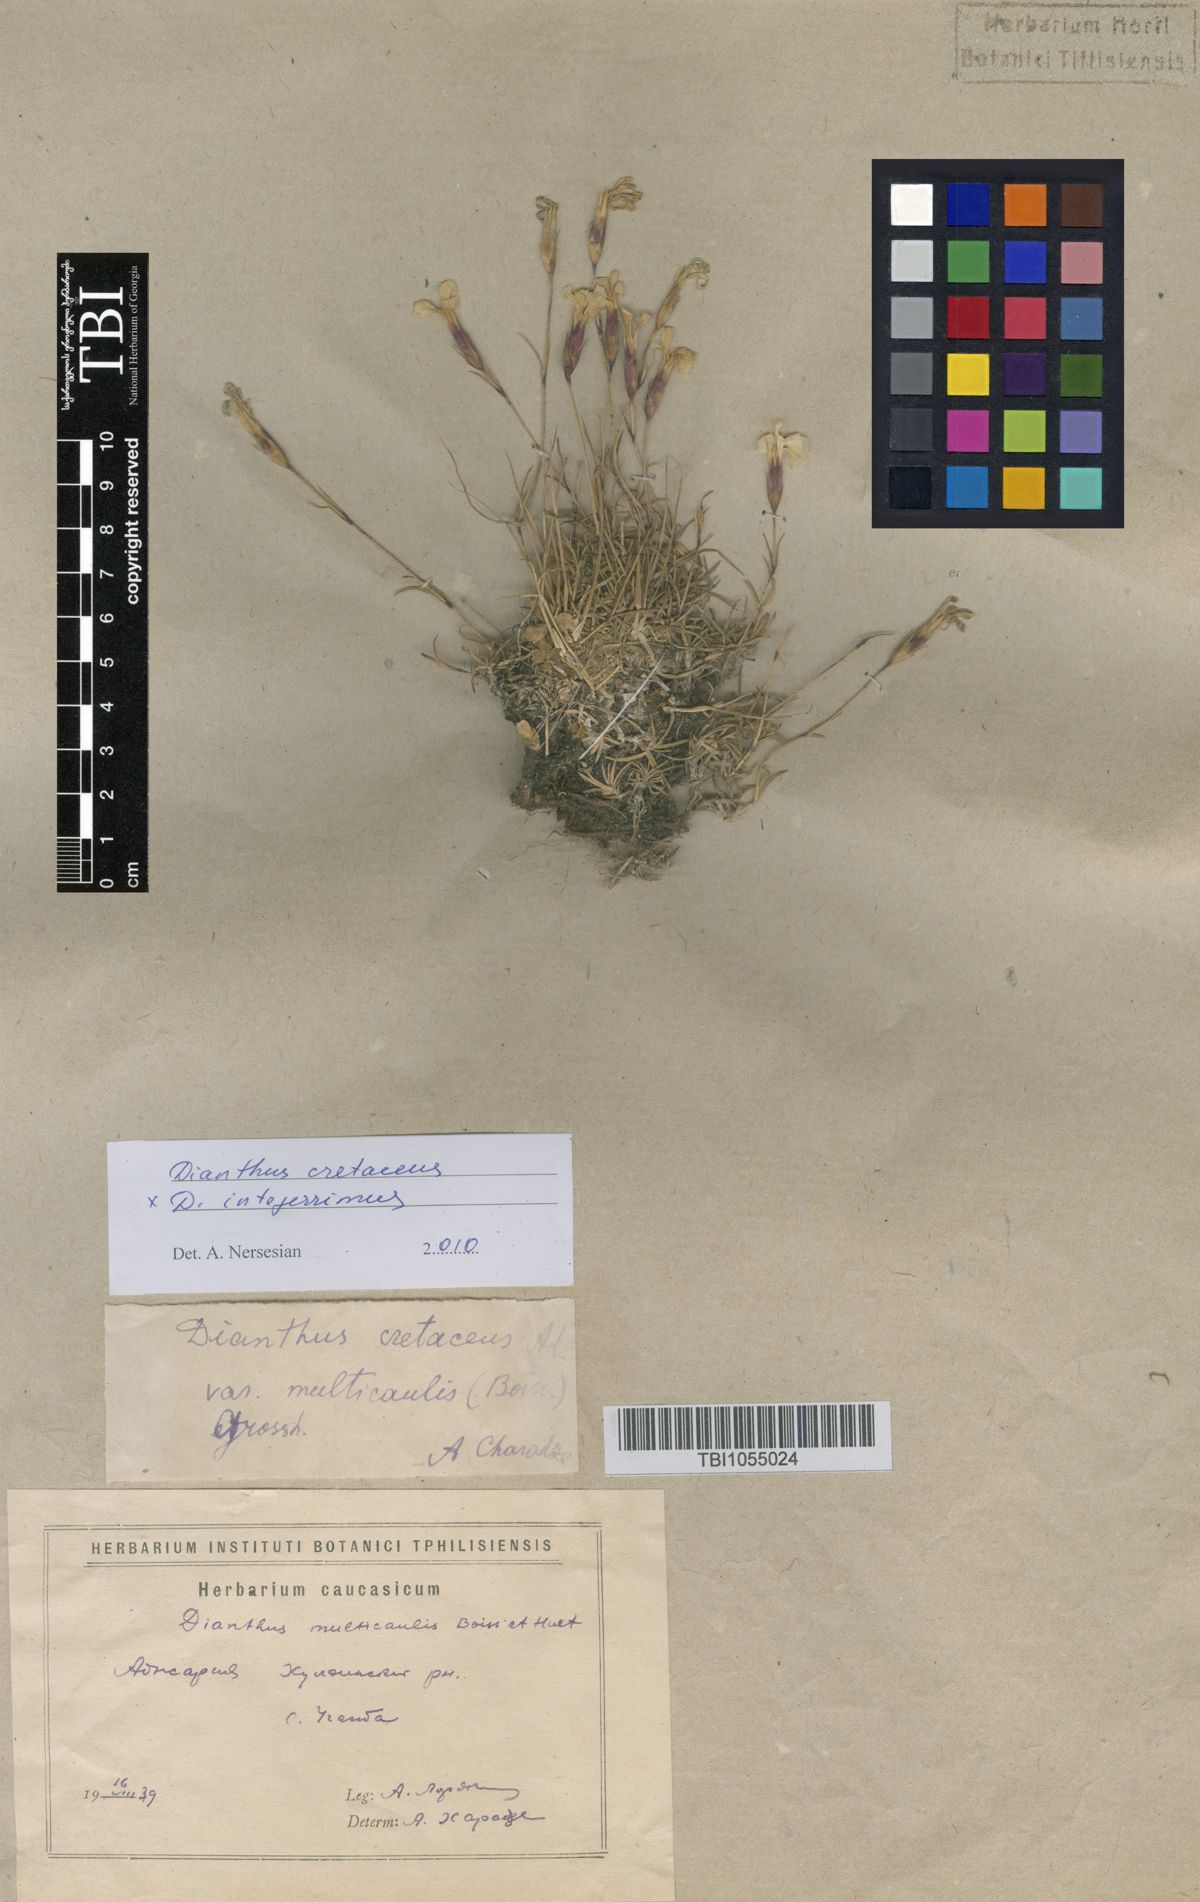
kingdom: Plantae
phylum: Tracheophyta
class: Magnoliopsida
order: Caryophyllales
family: Caryophyllaceae
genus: Dianthus
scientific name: Dianthus cretaceus
